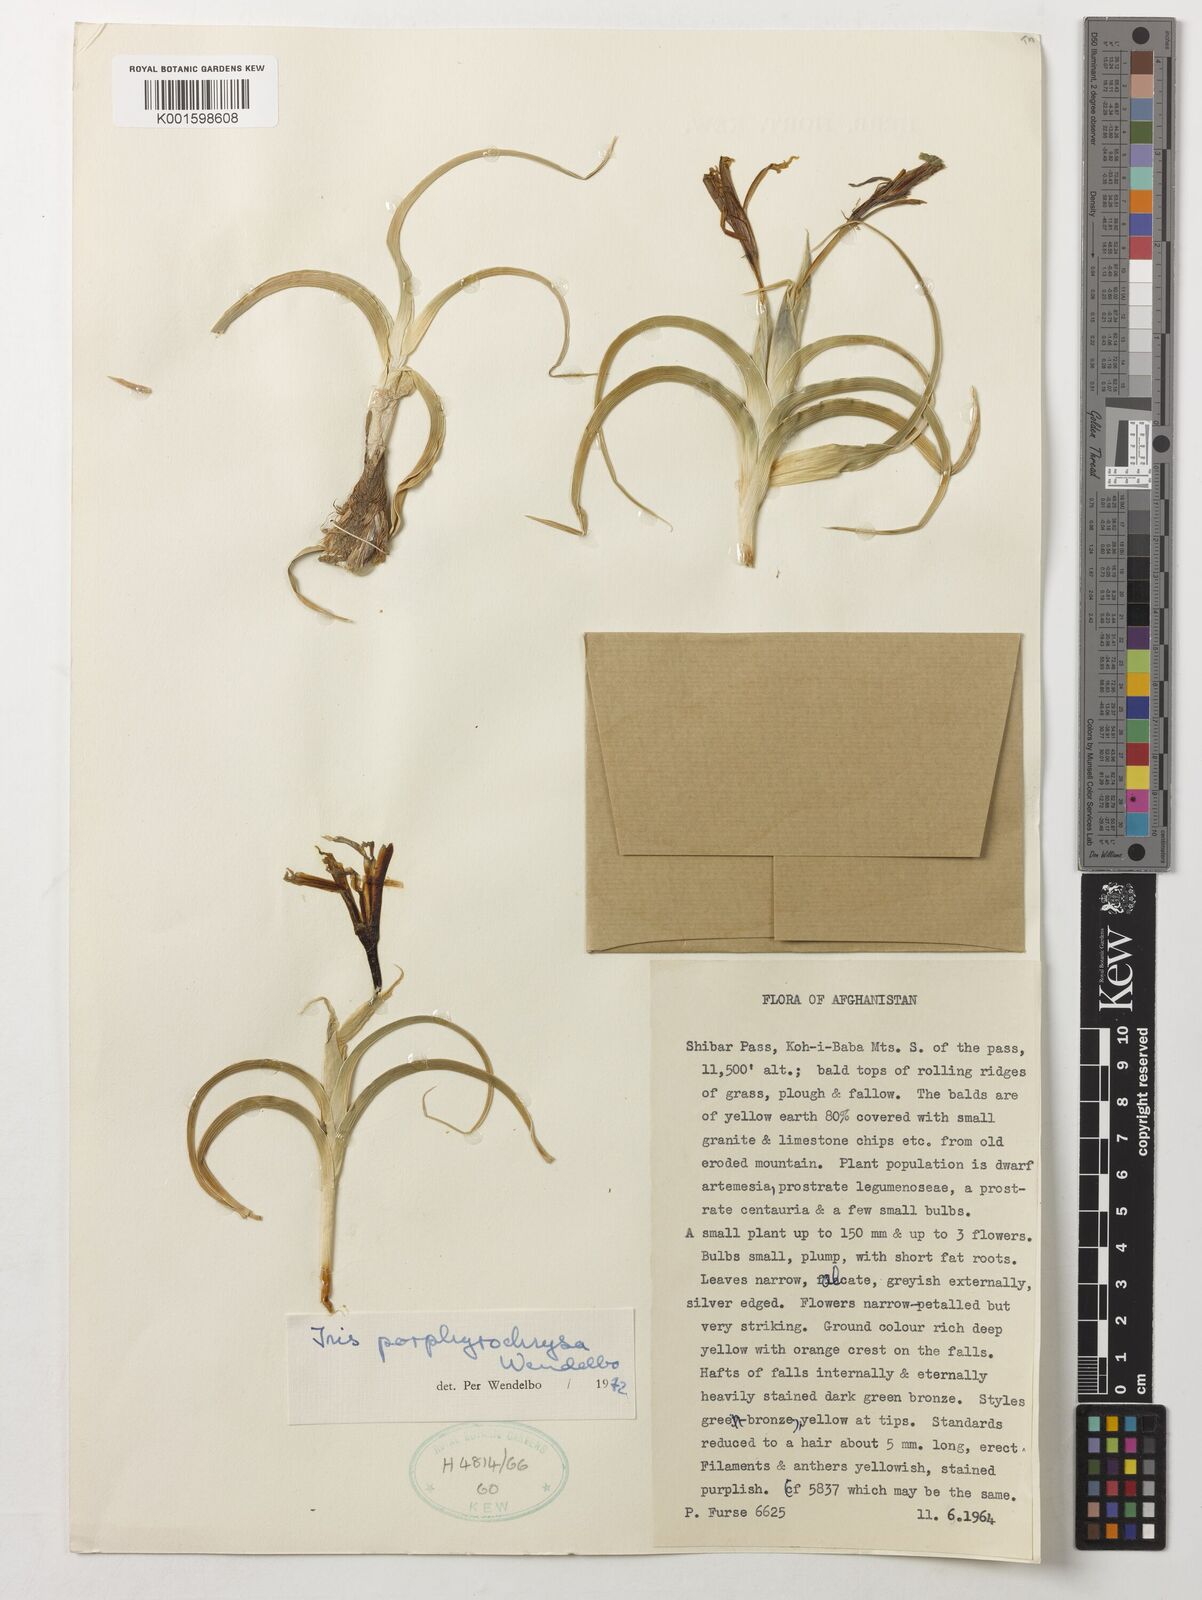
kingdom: Plantae
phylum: Tracheophyta
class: Liliopsida
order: Asparagales
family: Iridaceae
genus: Iris
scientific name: Iris porphyrochrysa
